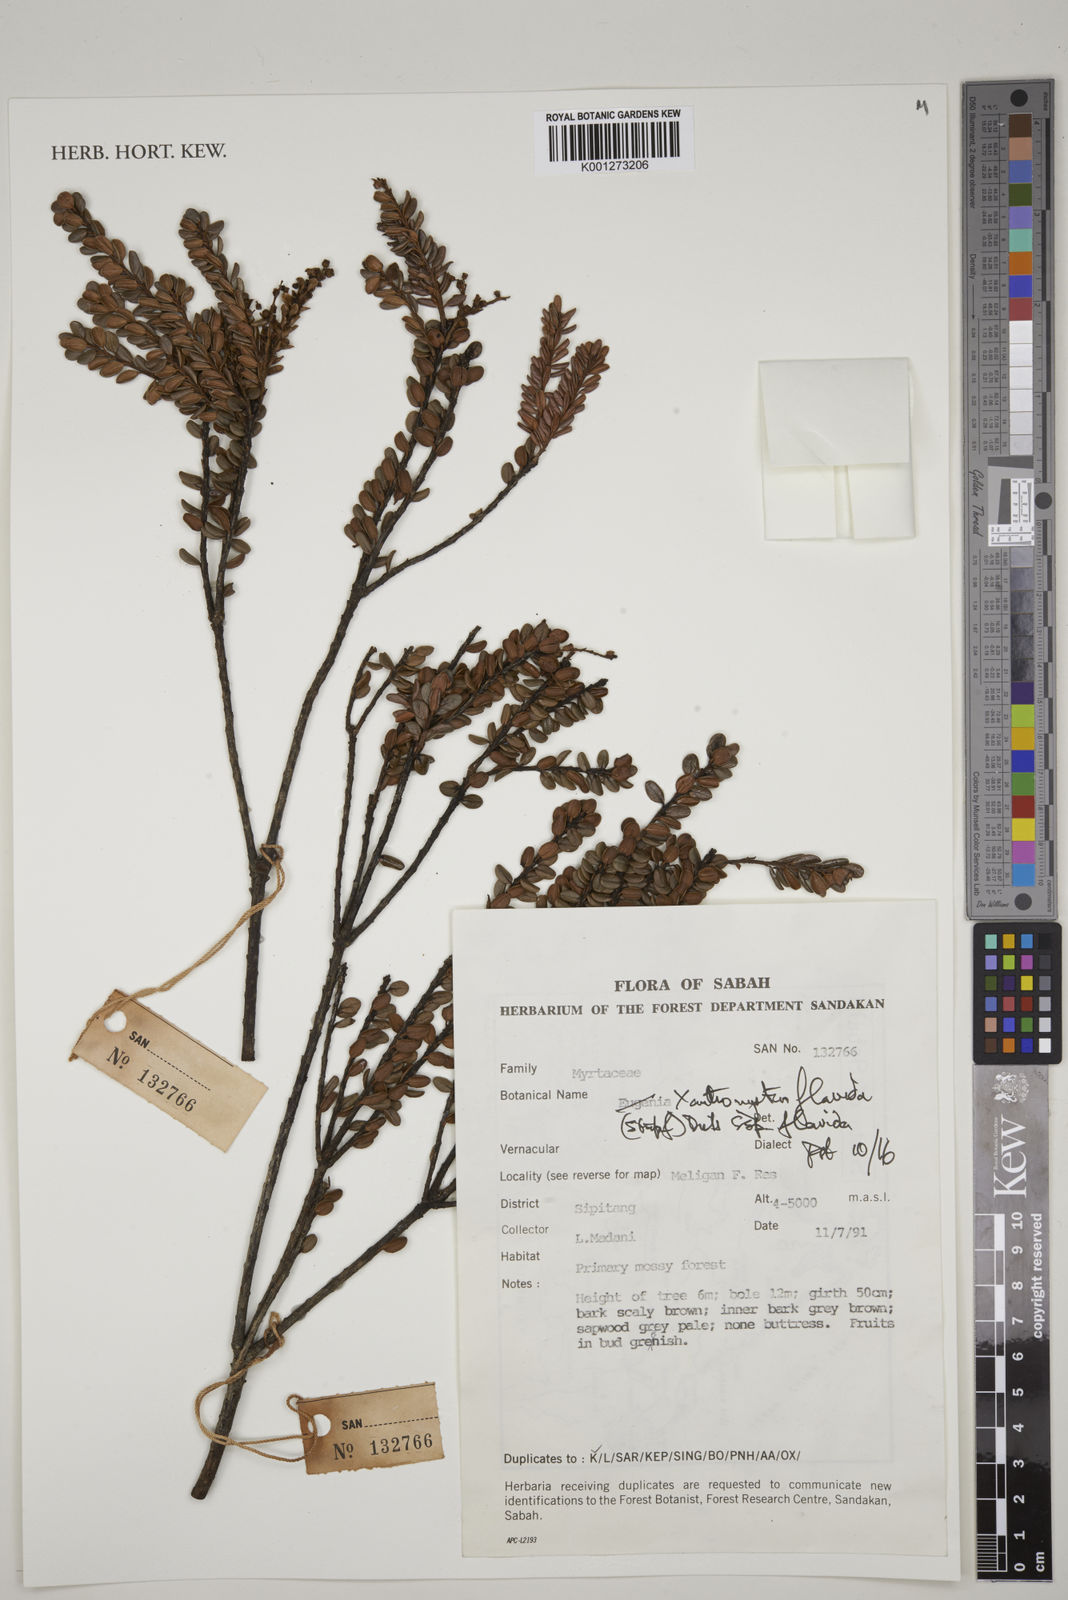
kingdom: Plantae
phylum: Tracheophyta
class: Magnoliopsida
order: Myrtales
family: Myrtaceae
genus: Xanthomyrtus
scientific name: Xanthomyrtus flavida
